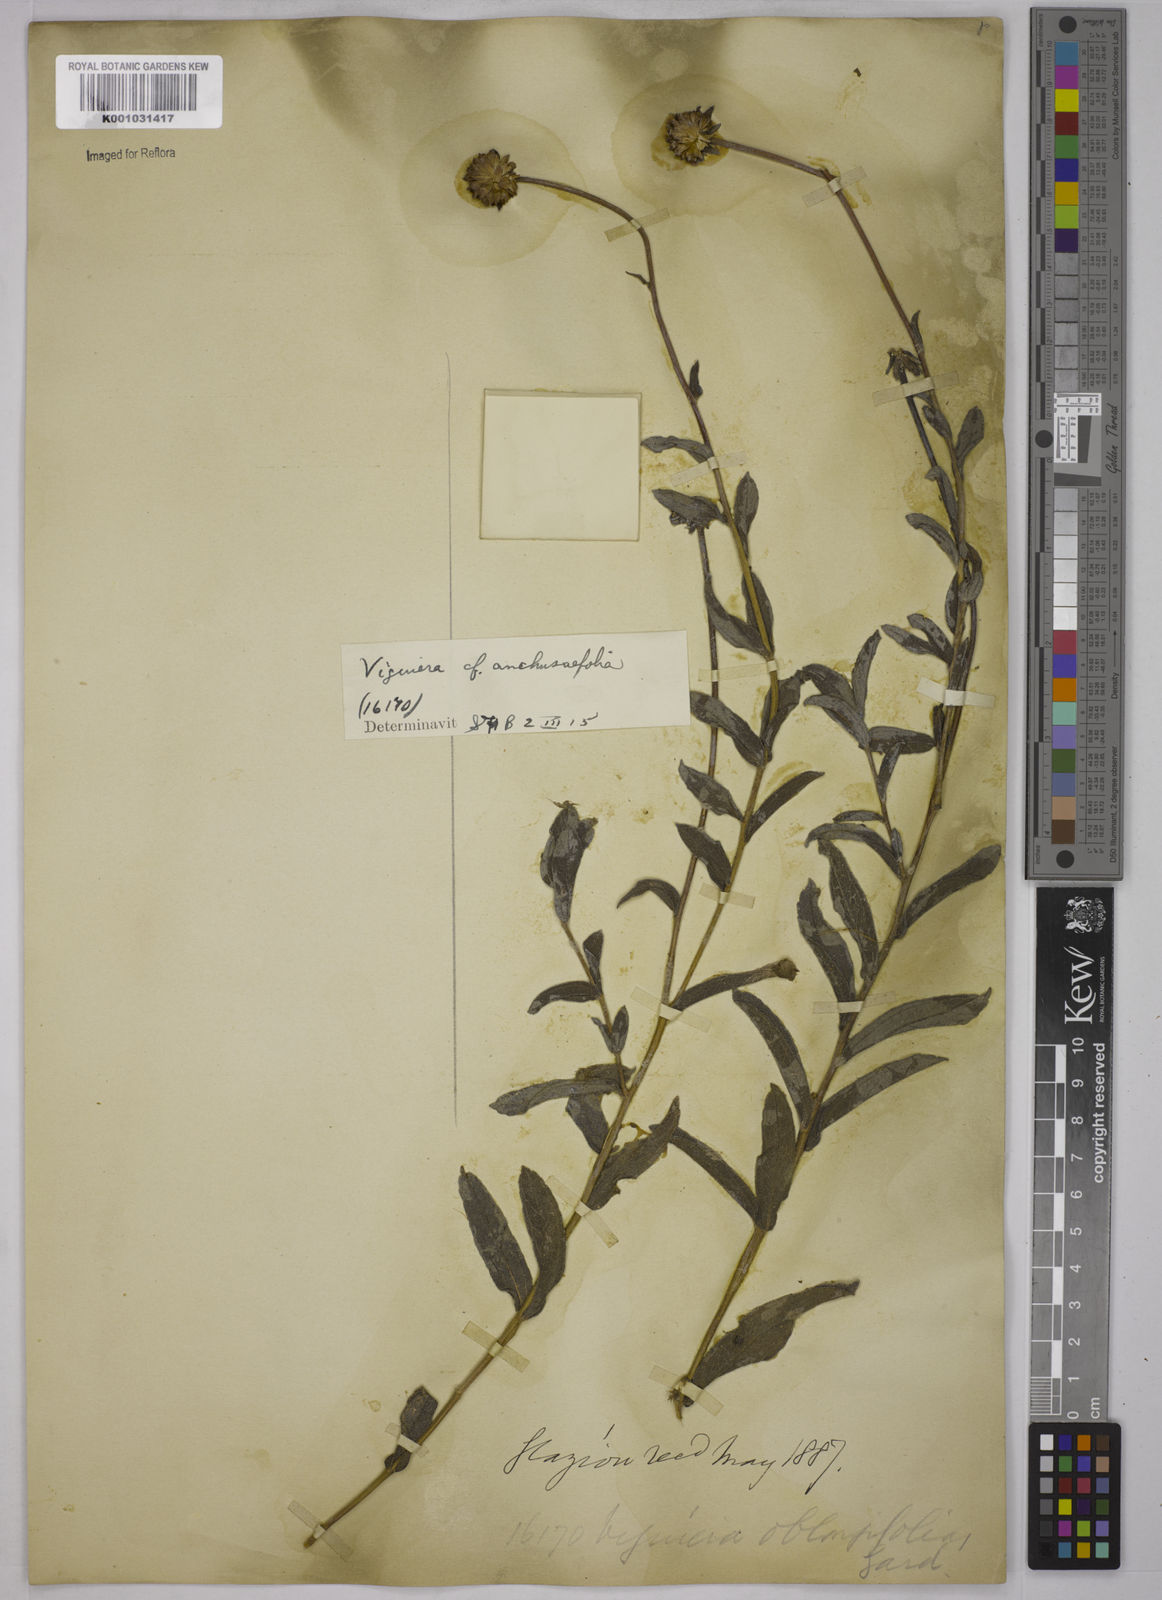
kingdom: Plantae
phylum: Tracheophyta
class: Magnoliopsida
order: Asterales
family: Asteraceae
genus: Aldama
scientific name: Aldama anchusifolia
